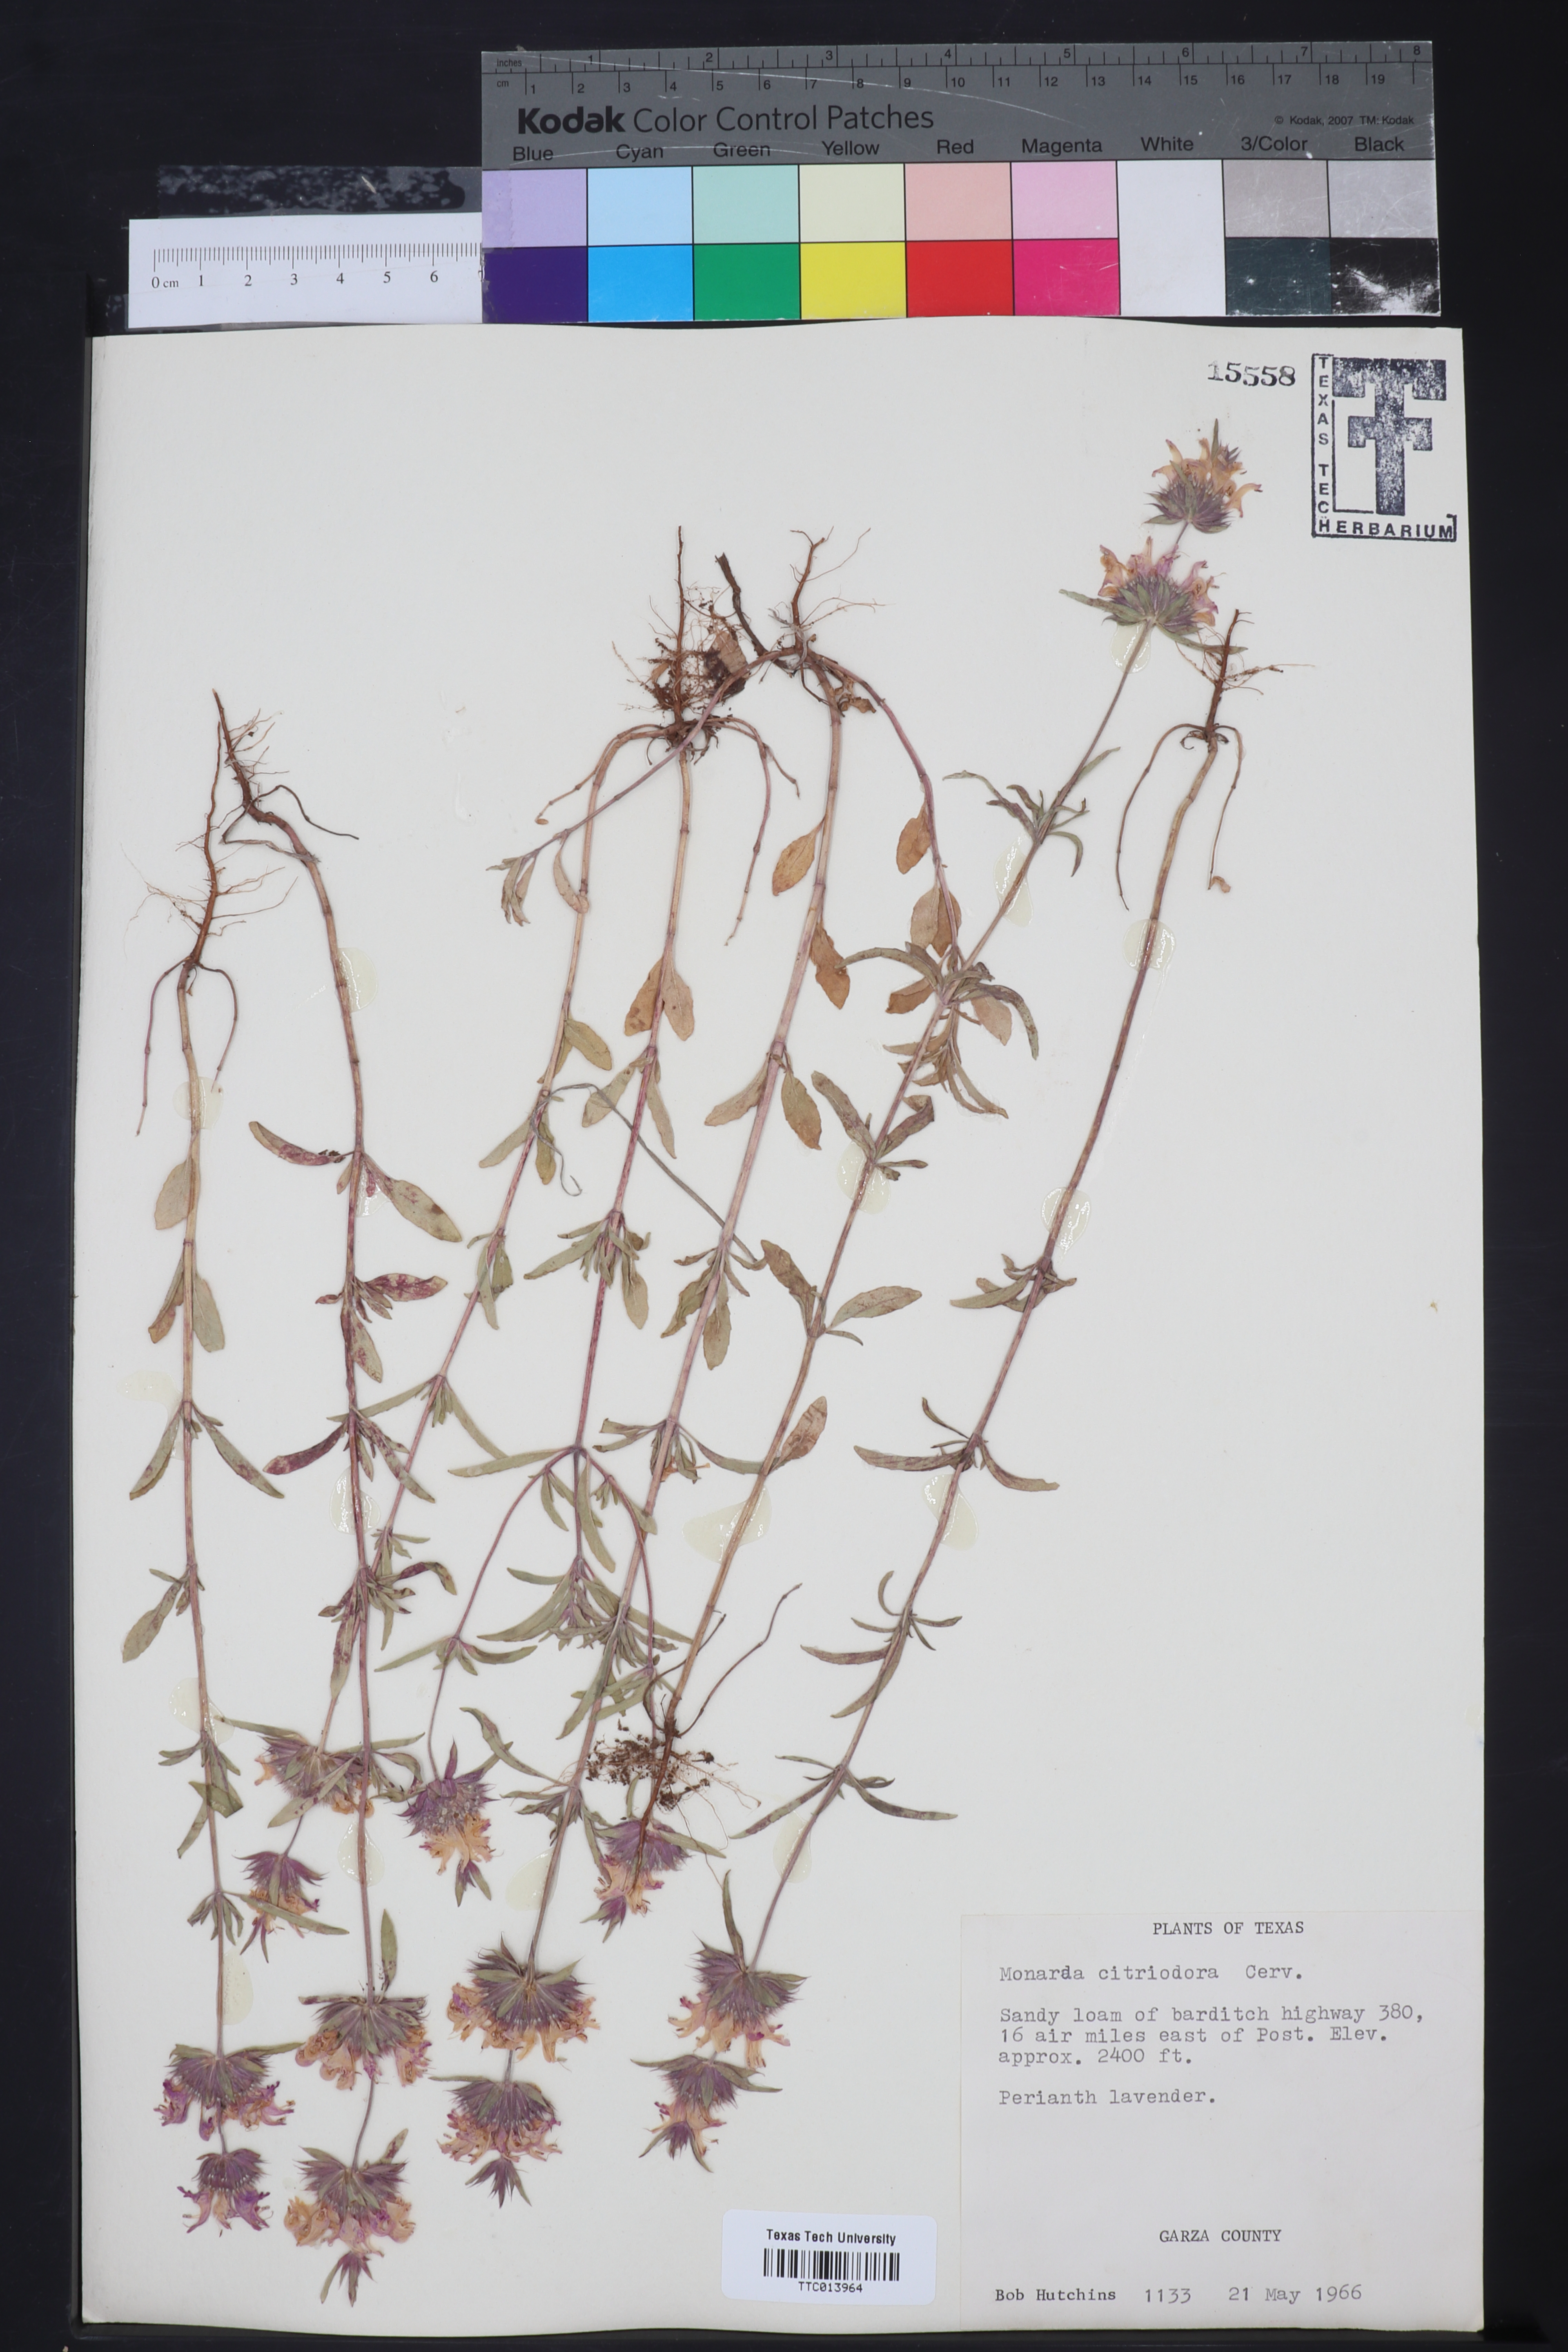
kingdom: Plantae
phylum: Tracheophyta
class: Magnoliopsida
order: Lamiales
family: Lamiaceae
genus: Monarda
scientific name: Monarda citriodora
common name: Lemon beebalm
